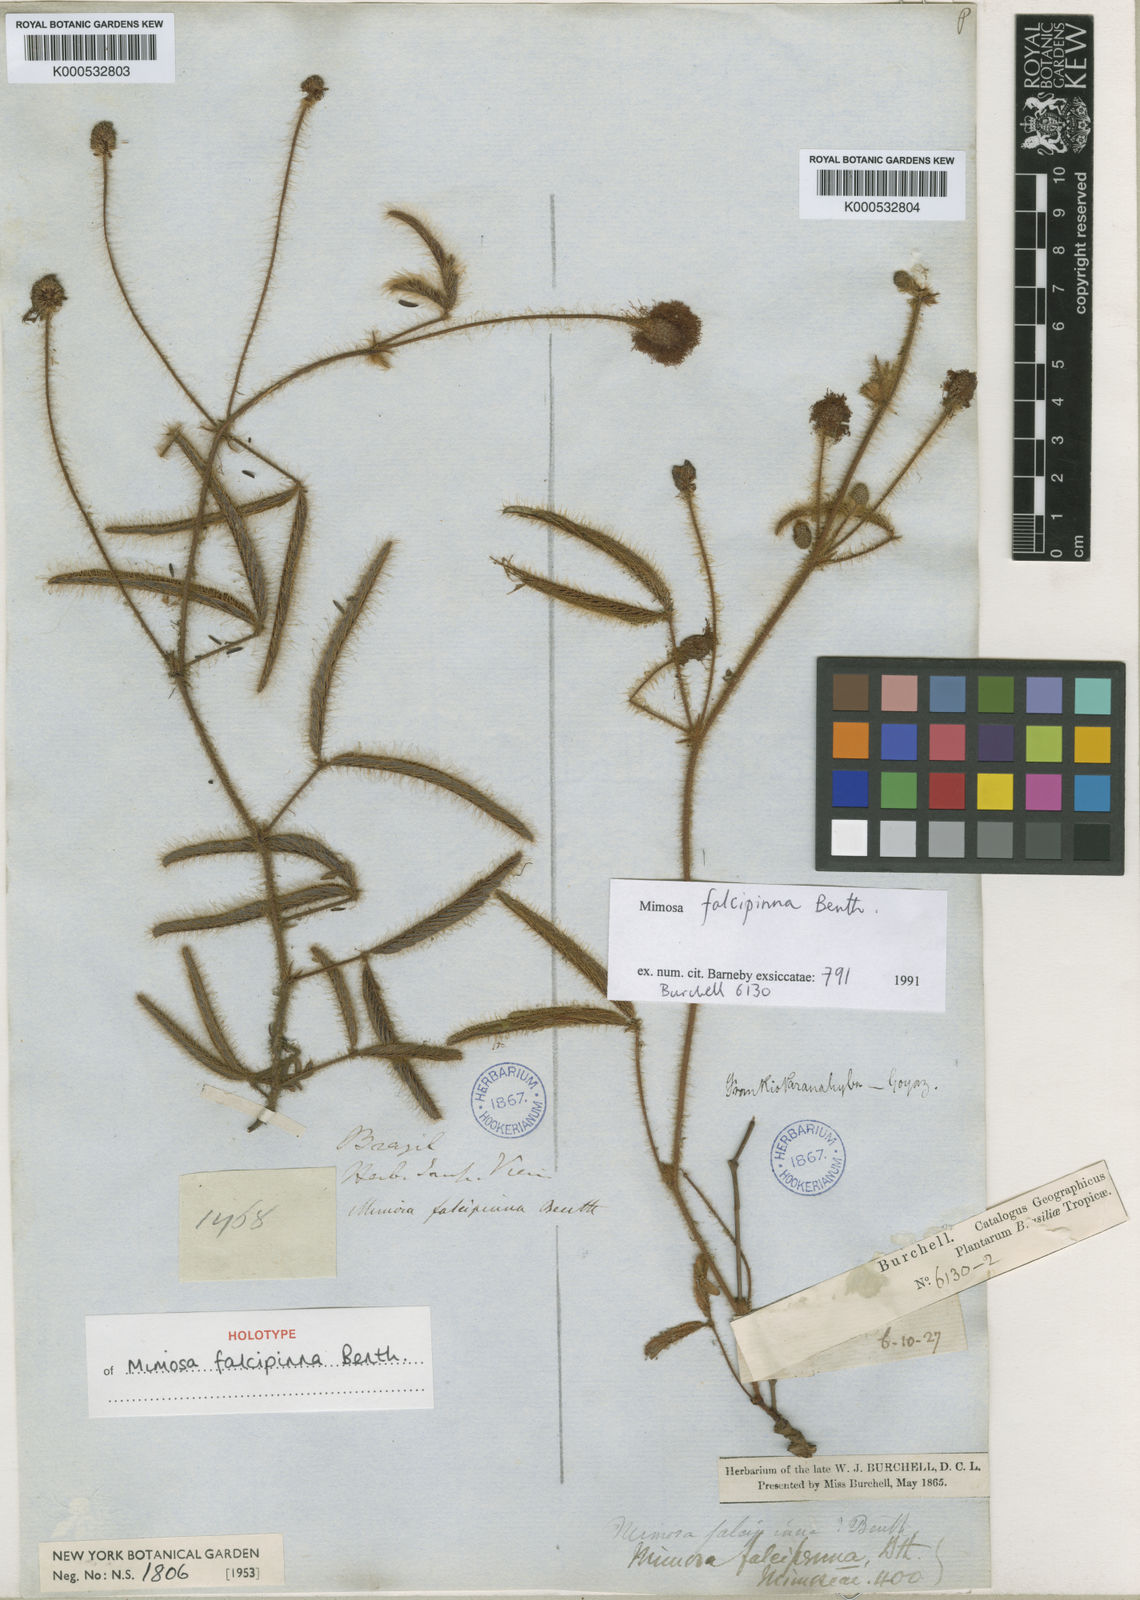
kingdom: Plantae
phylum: Tracheophyta
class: Magnoliopsida
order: Fabales
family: Fabaceae
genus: Mimosa
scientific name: Mimosa falcipinna
